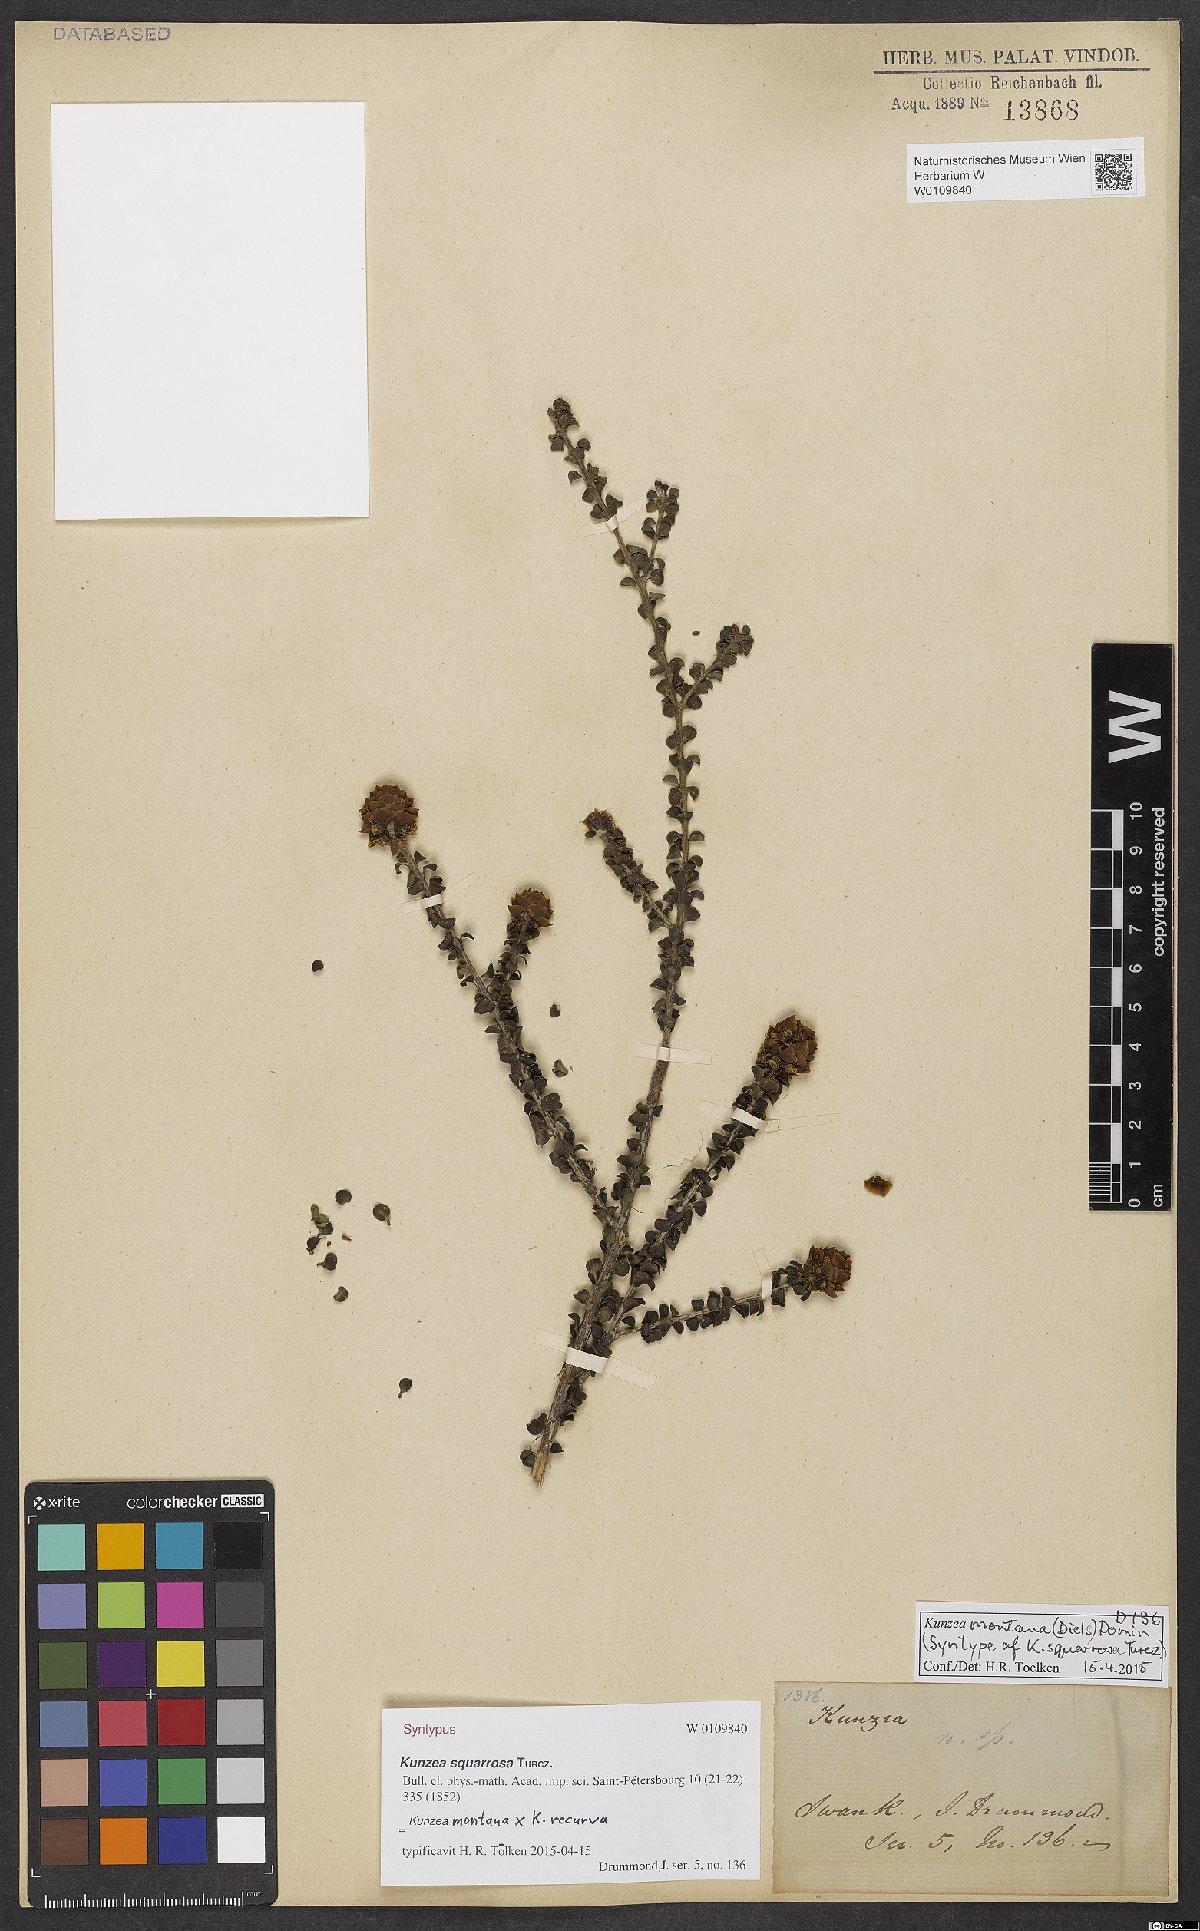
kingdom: Plantae
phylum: Tracheophyta
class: Magnoliopsida
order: Myrtales
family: Myrtaceae
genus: Kunzea
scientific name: Kunzea squarrosa
